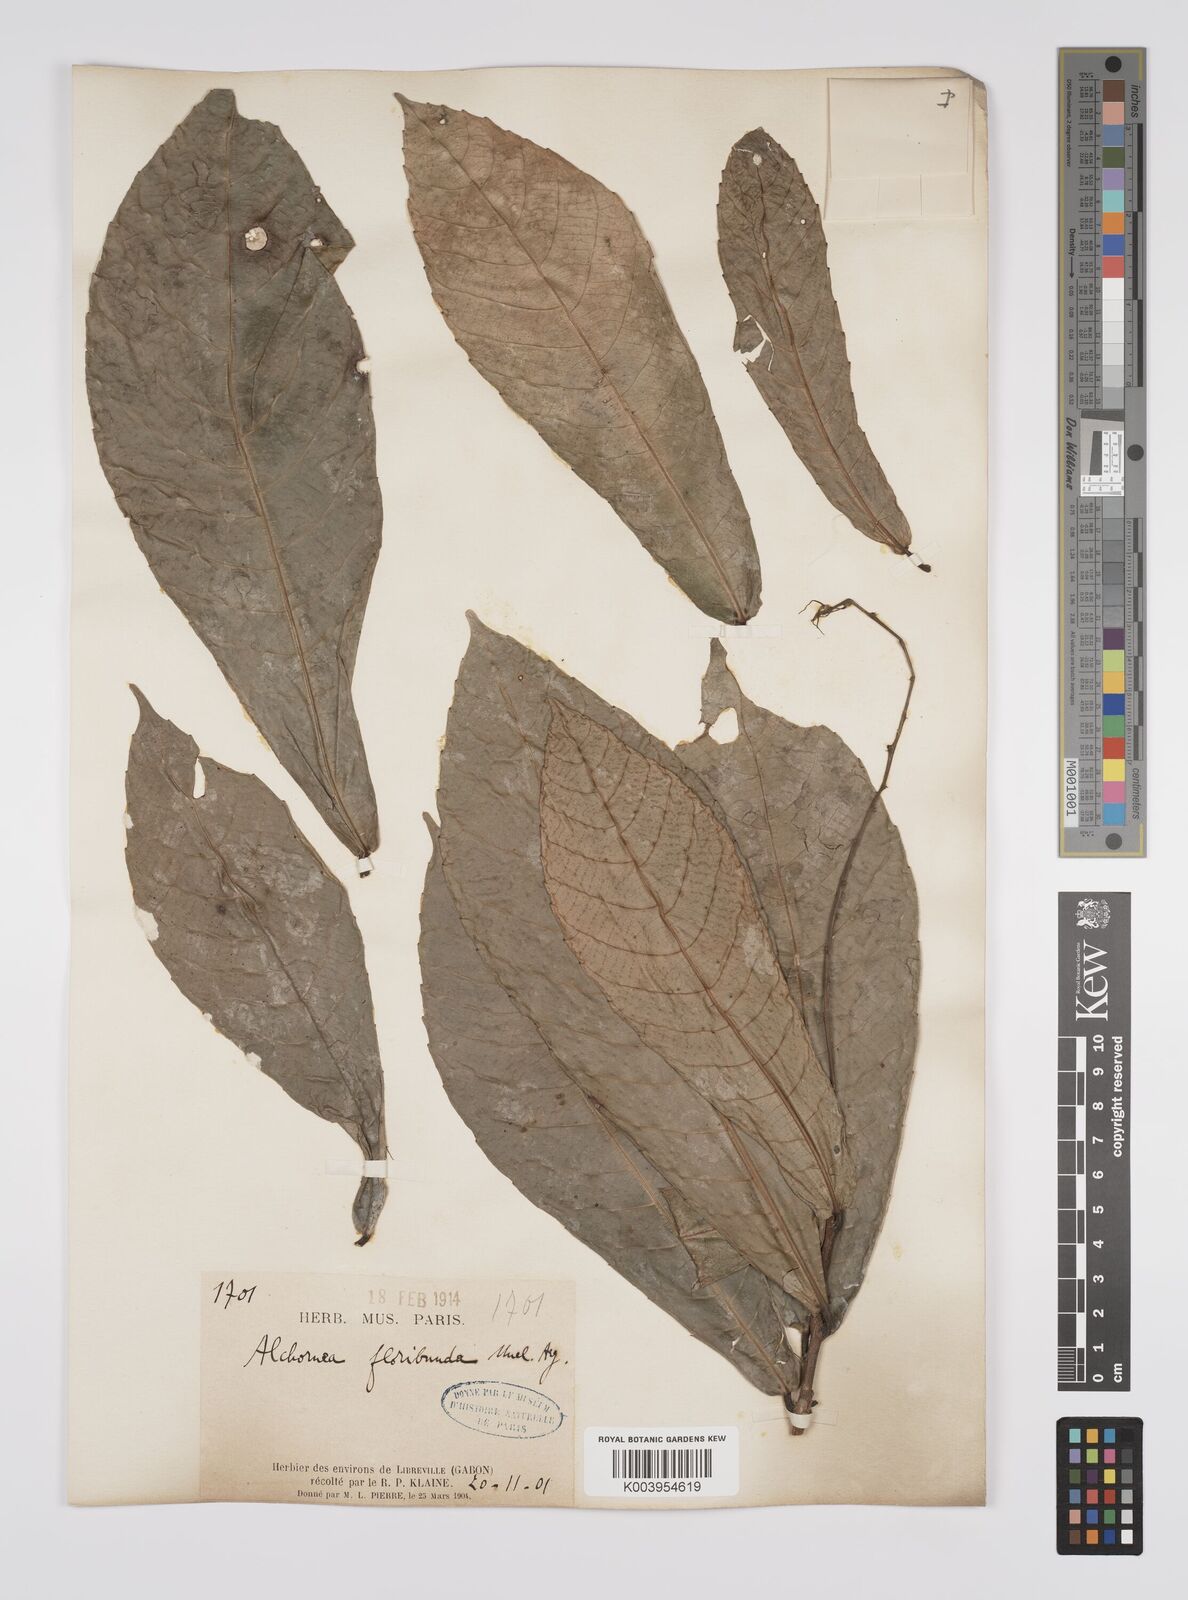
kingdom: Plantae
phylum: Tracheophyta
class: Magnoliopsida
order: Malpighiales
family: Euphorbiaceae
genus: Alchornea
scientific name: Alchornea floribunda
